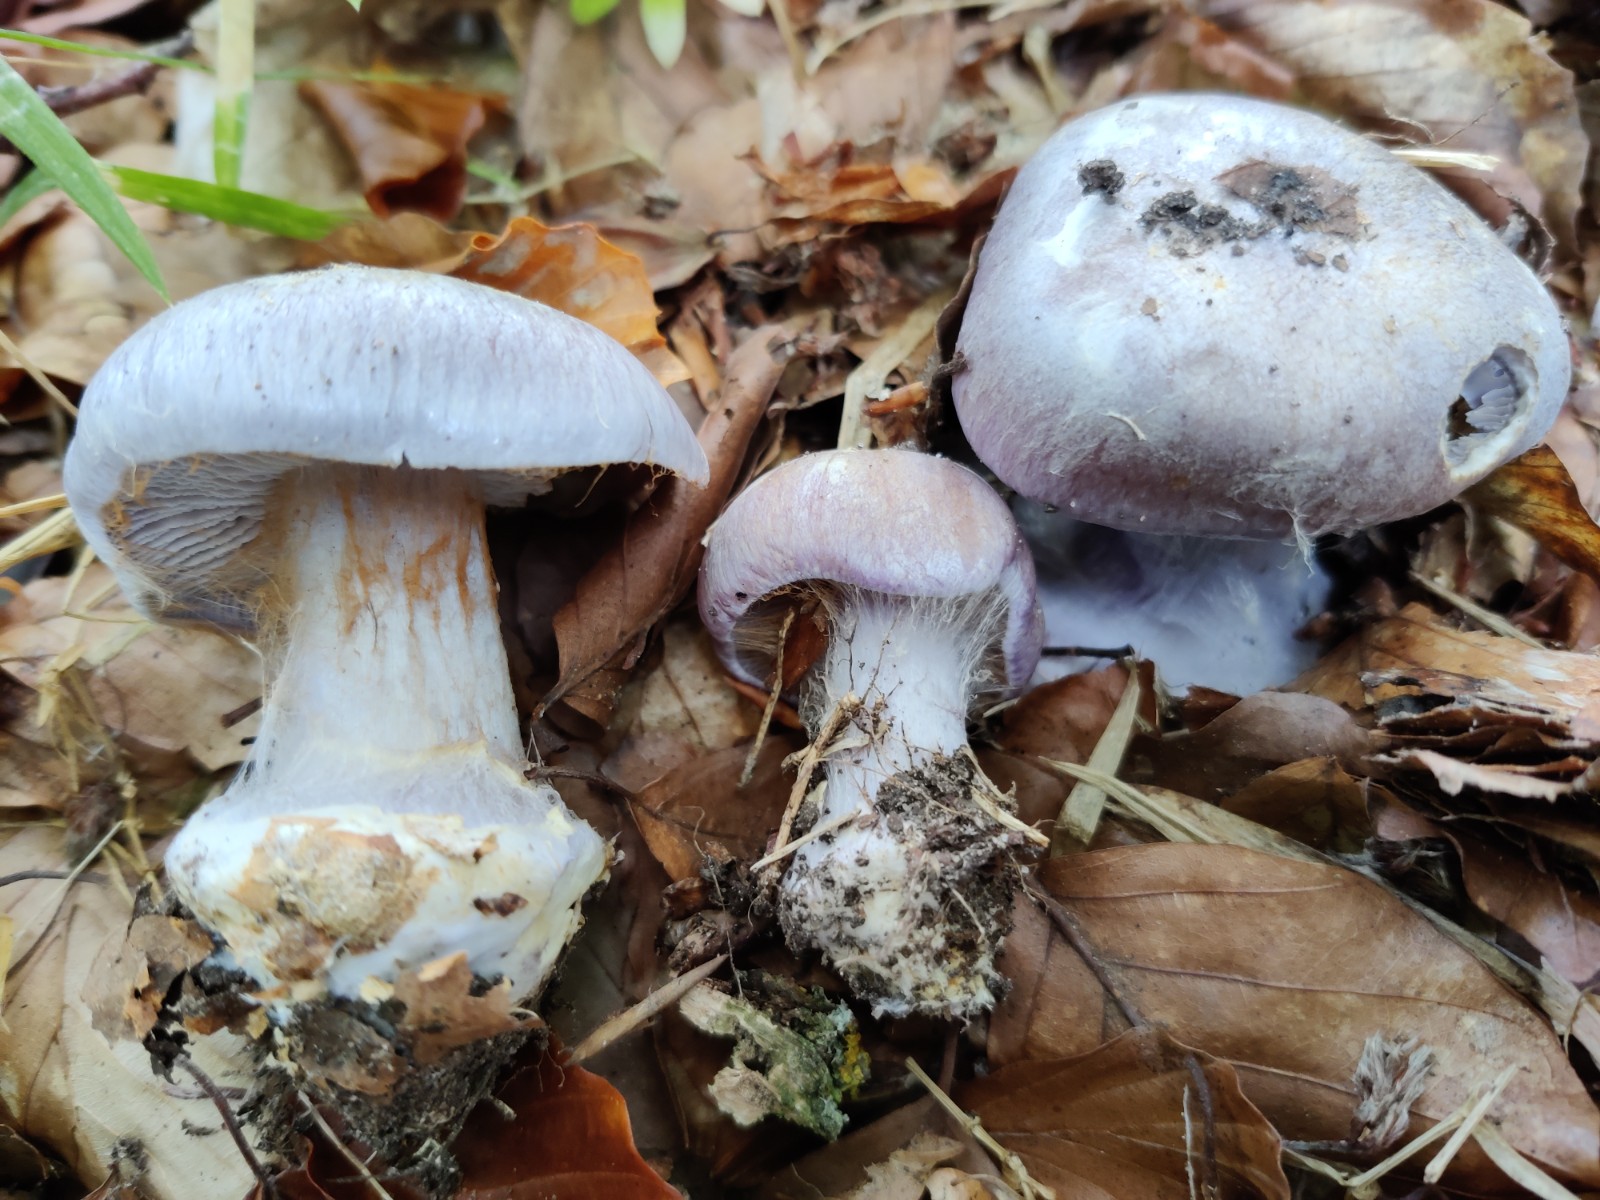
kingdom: Fungi
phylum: Basidiomycota
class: Agaricomycetes
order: Agaricales
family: Cortinariaceae
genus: Cortinarius
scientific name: Cortinarius caerulescens
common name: blåkødet slørhat
